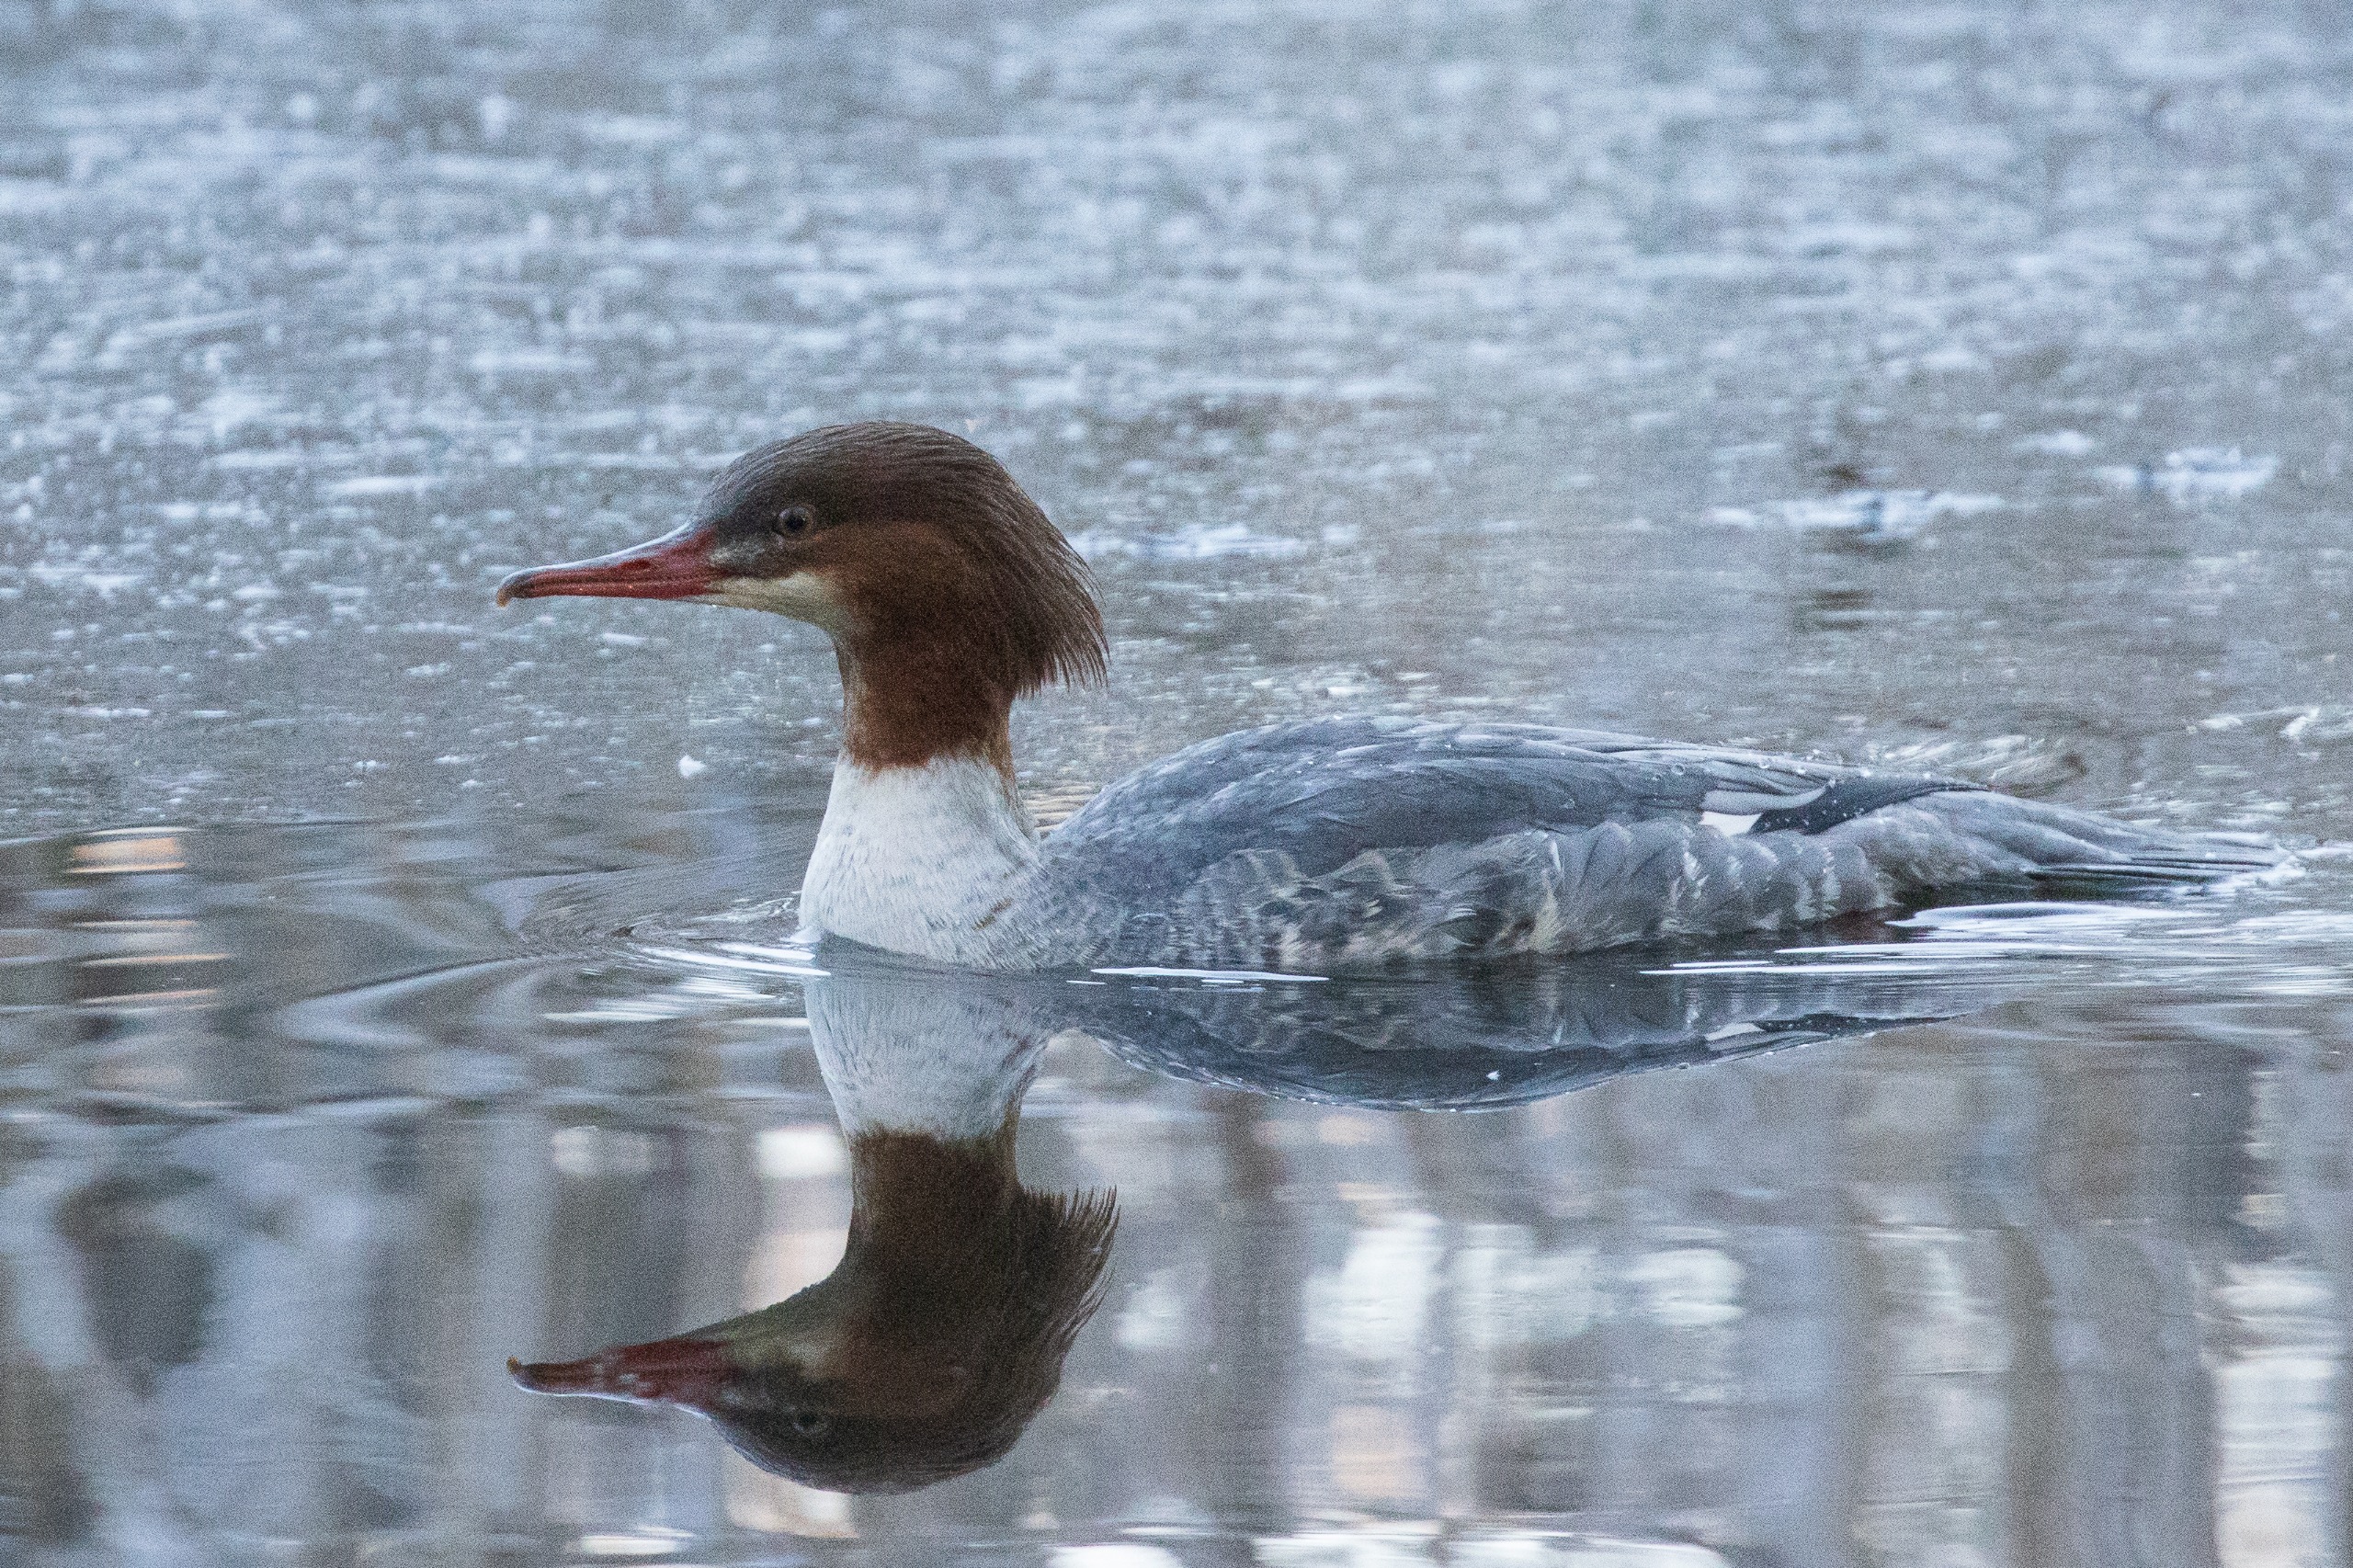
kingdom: Animalia
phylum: Chordata
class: Aves
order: Anseriformes
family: Anatidae
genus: Mergus
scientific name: Mergus merganser
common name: Stor skallesluger
